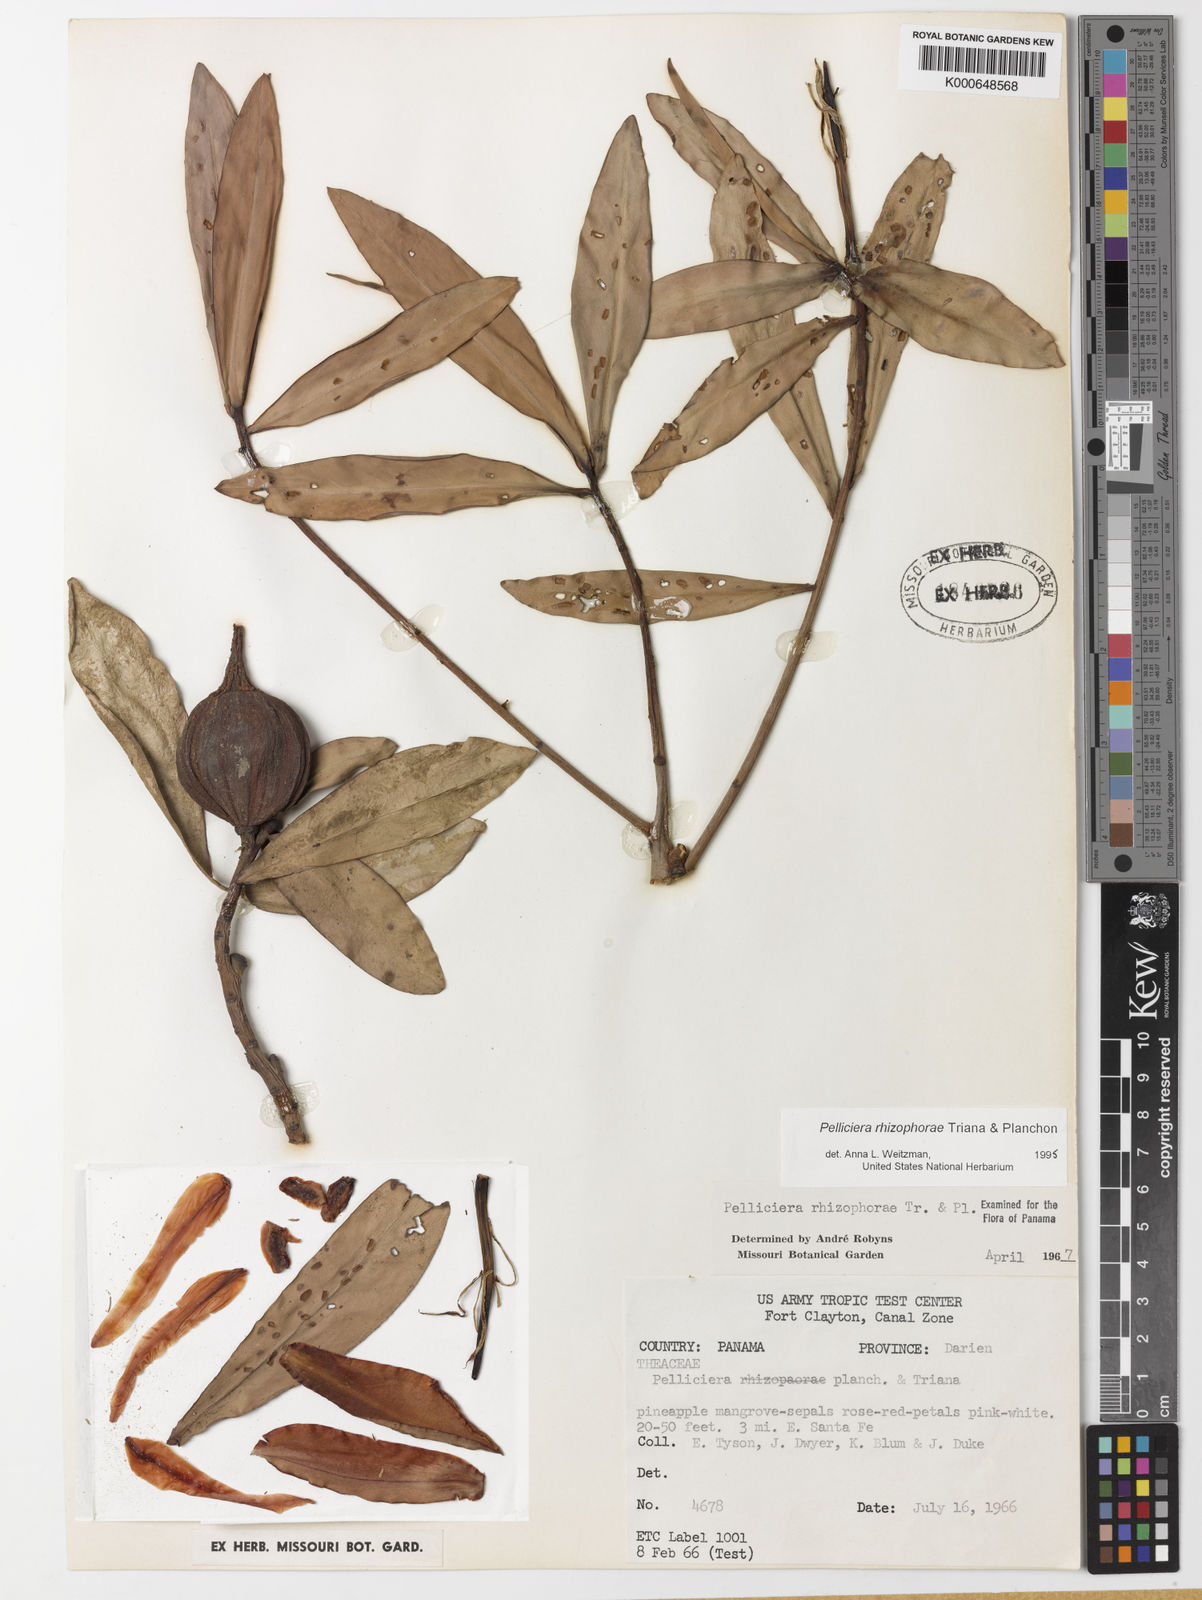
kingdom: Plantae
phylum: Tracheophyta
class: Magnoliopsida
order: Ericales
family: Tetrameristaceae
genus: Pelliciera
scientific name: Pelliciera rhizophorae
